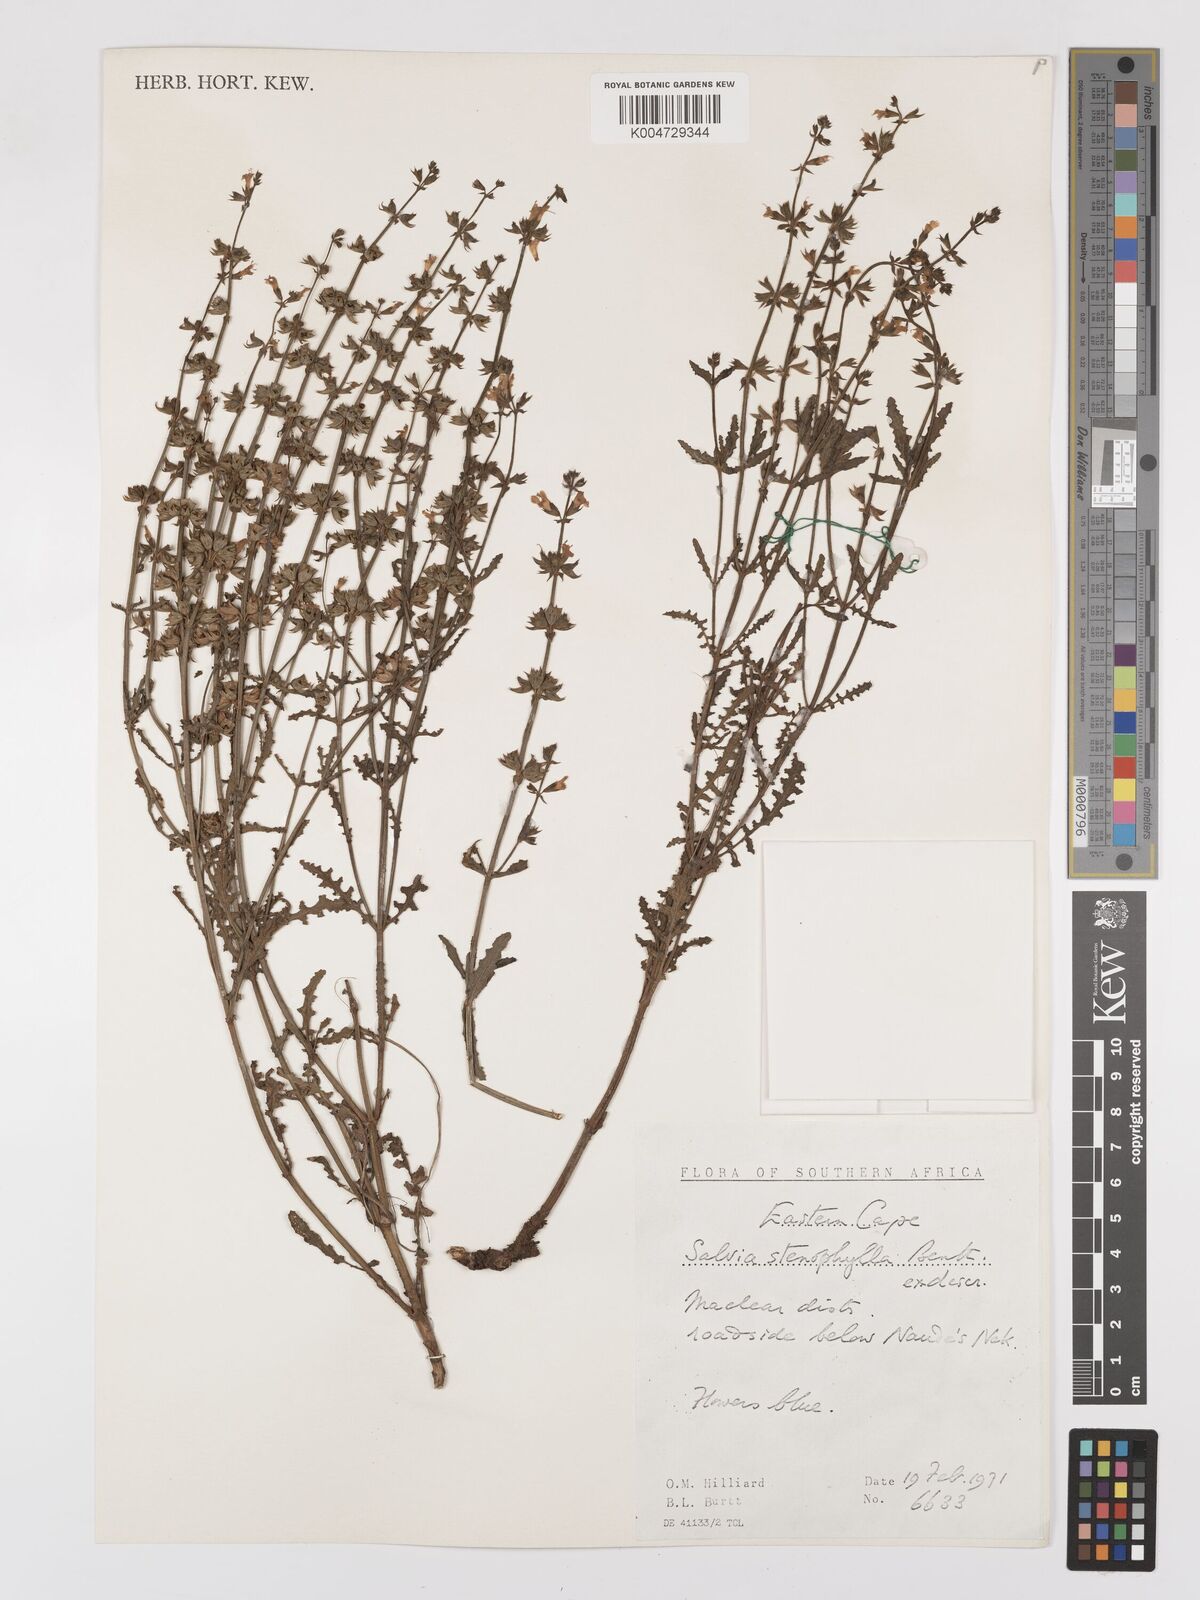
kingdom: Plantae
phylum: Tracheophyta
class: Magnoliopsida
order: Lamiales
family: Lamiaceae
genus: Salvia
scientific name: Salvia stenophylla
